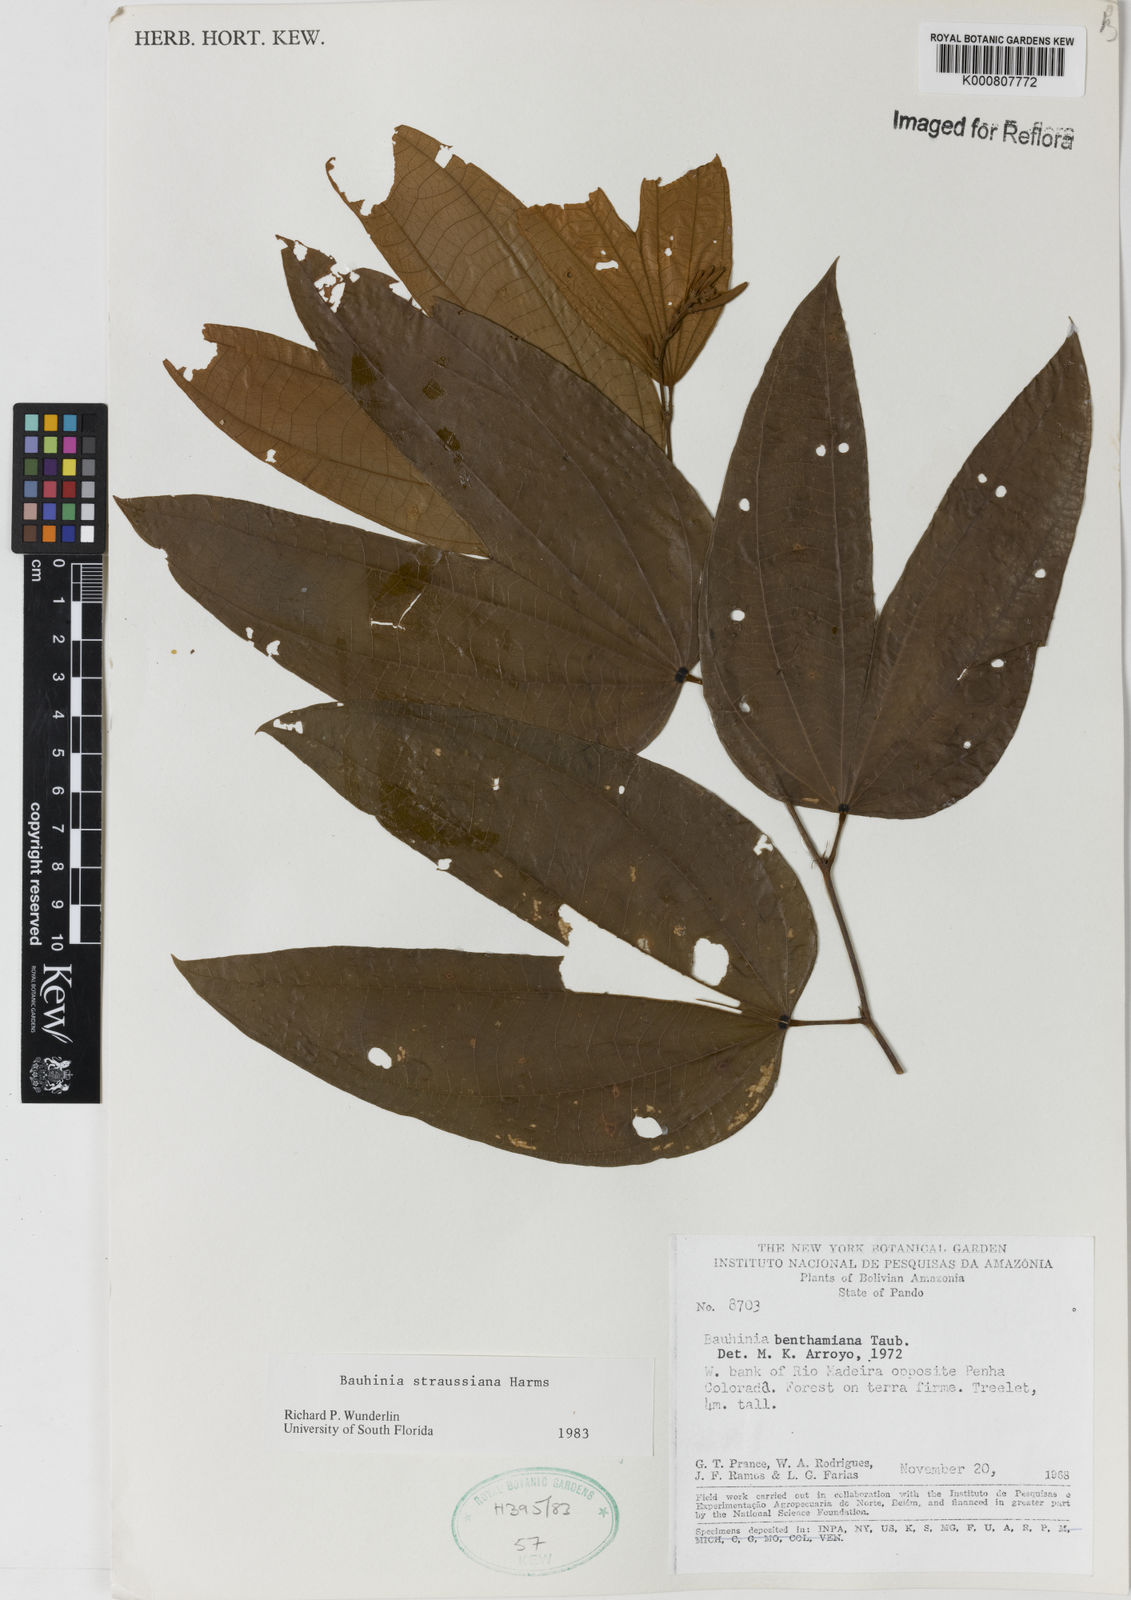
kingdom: Plantae
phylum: Tracheophyta
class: Magnoliopsida
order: Fabales
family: Fabaceae
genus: Bauhinia
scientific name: Bauhinia conwayi
